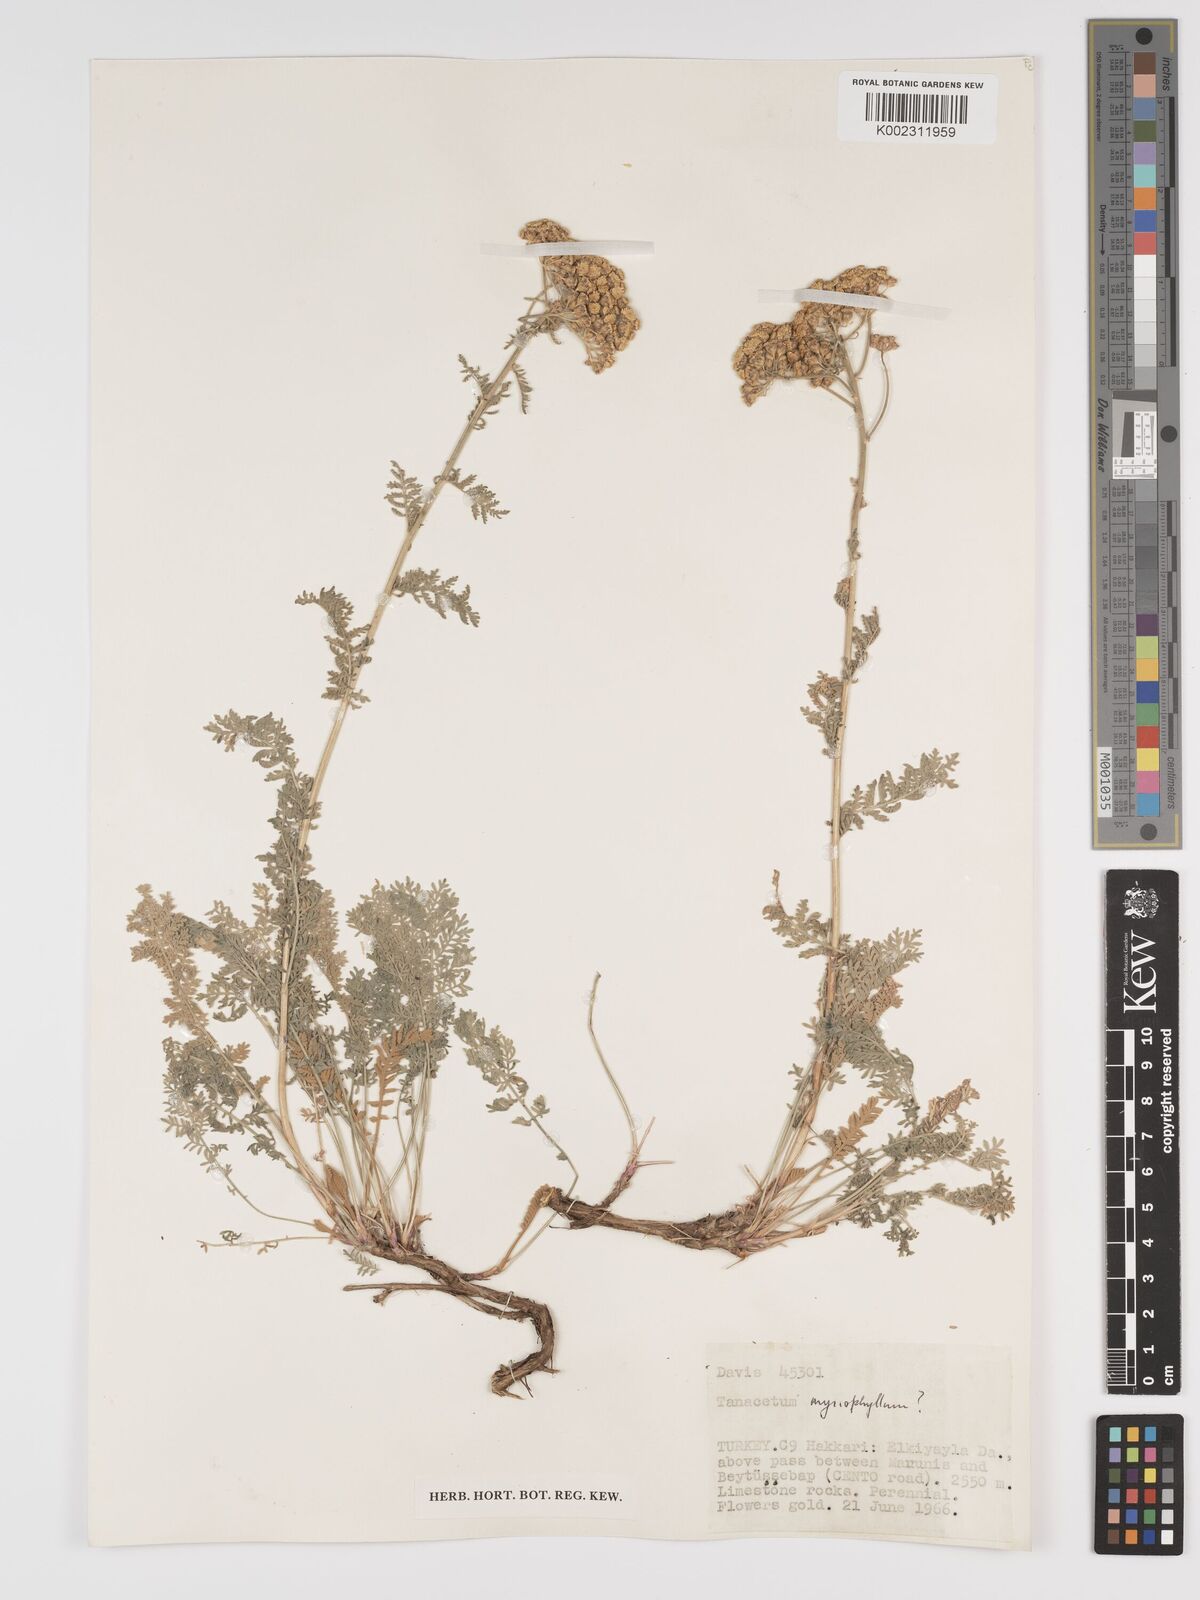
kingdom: Plantae
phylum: Tracheophyta
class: Magnoliopsida
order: Asterales
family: Asteraceae
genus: Tanacetum
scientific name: Tanacetum polycephalum
